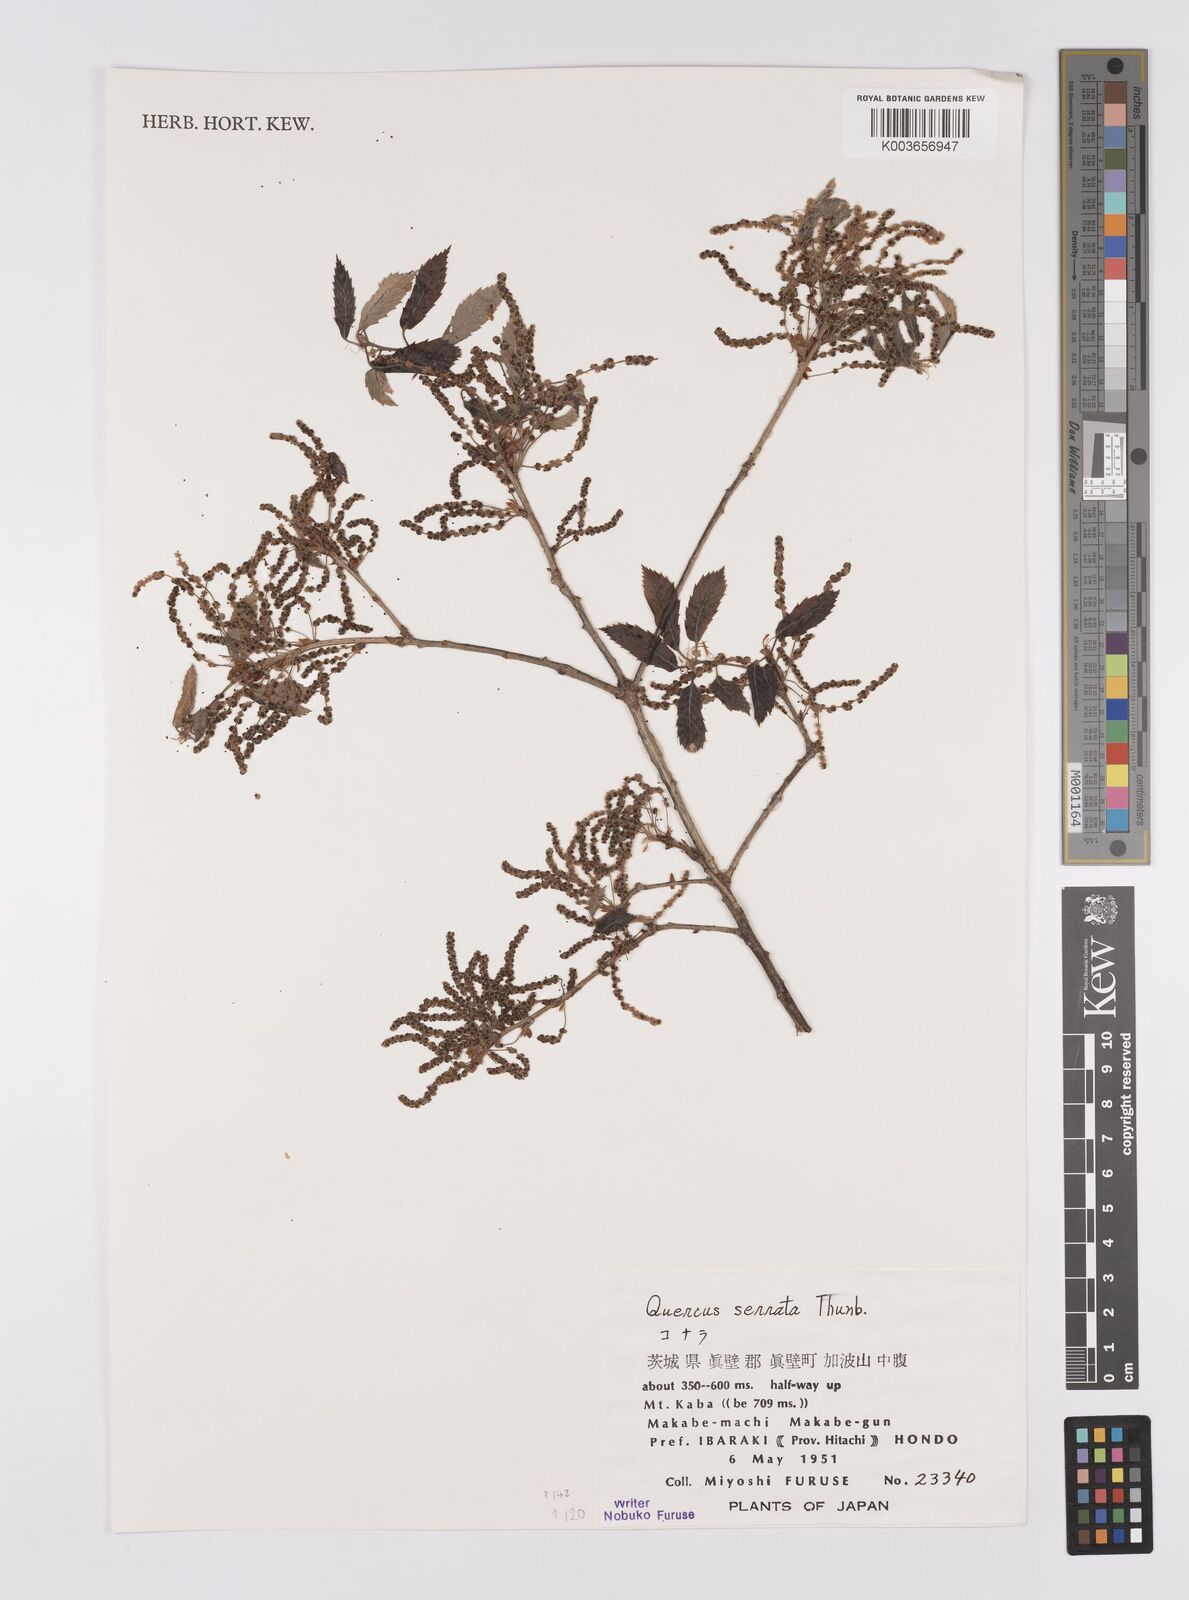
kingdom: Plantae
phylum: Tracheophyta
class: Magnoliopsida
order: Fagales
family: Fagaceae
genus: Quercus
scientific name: Quercus serrata
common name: Bao li
